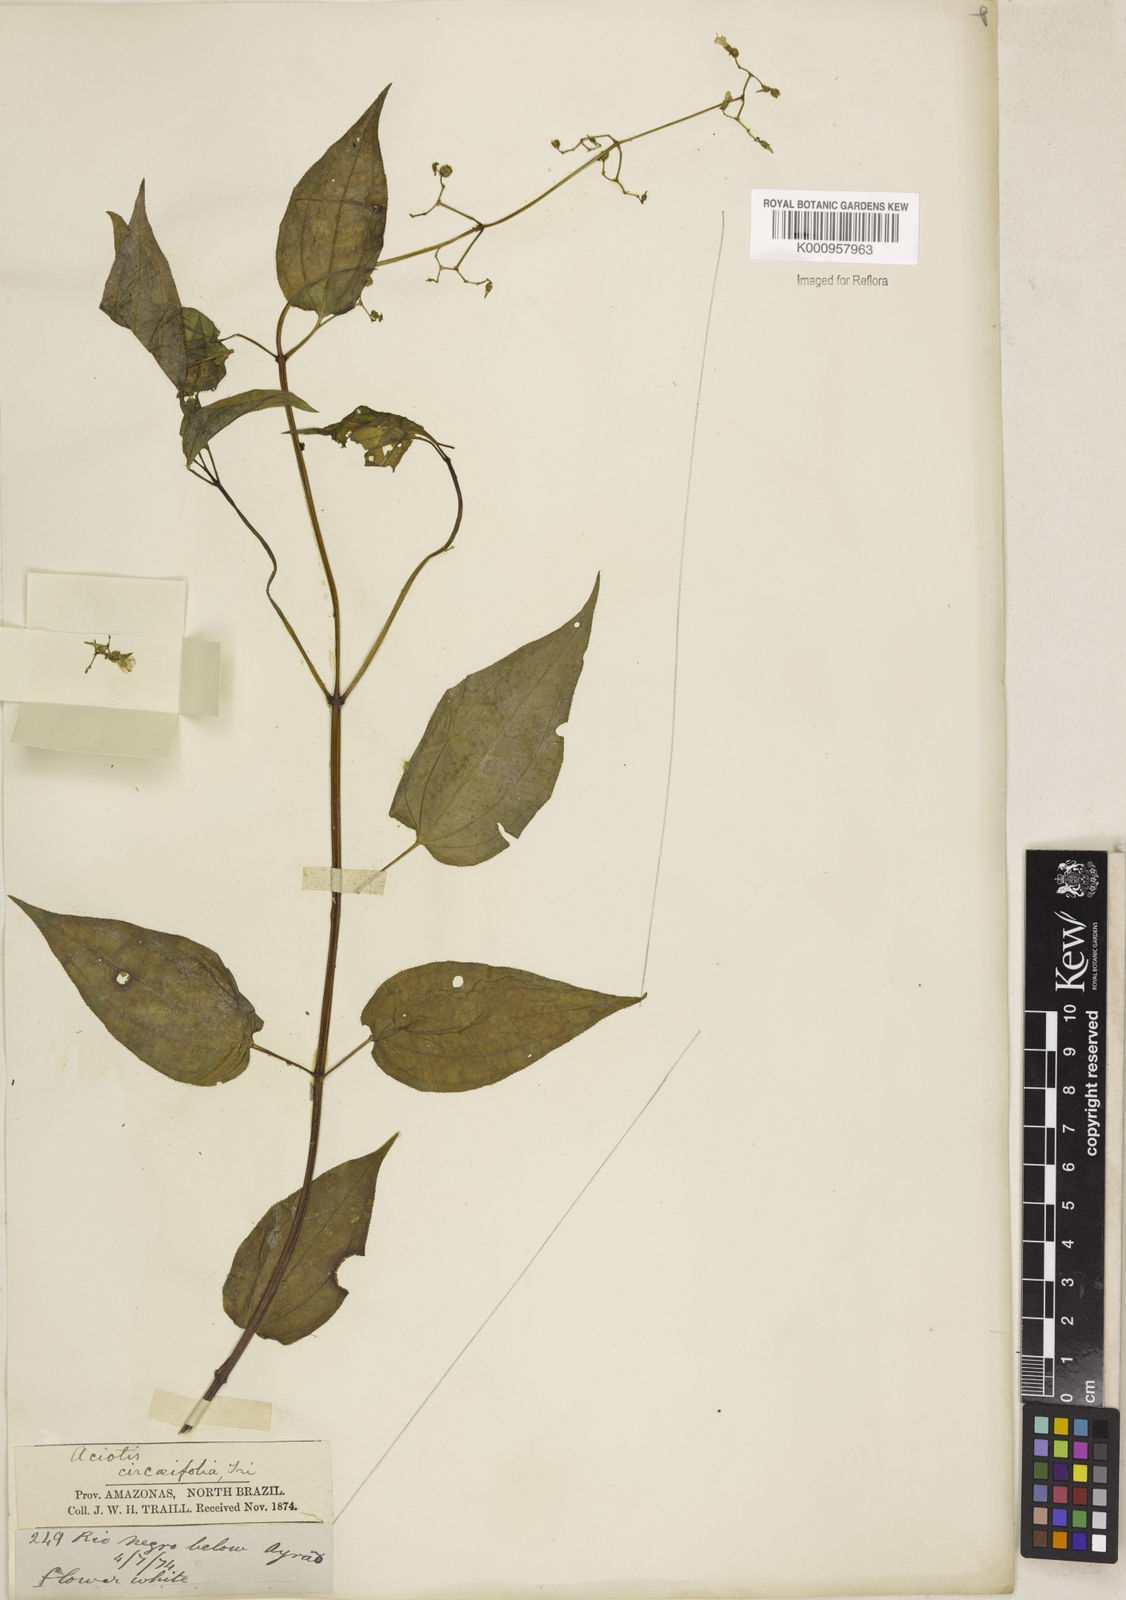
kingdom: Plantae
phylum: Tracheophyta
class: Magnoliopsida
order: Myrtales
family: Melastomataceae
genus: Aciotis
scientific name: Aciotis circaeifolia
